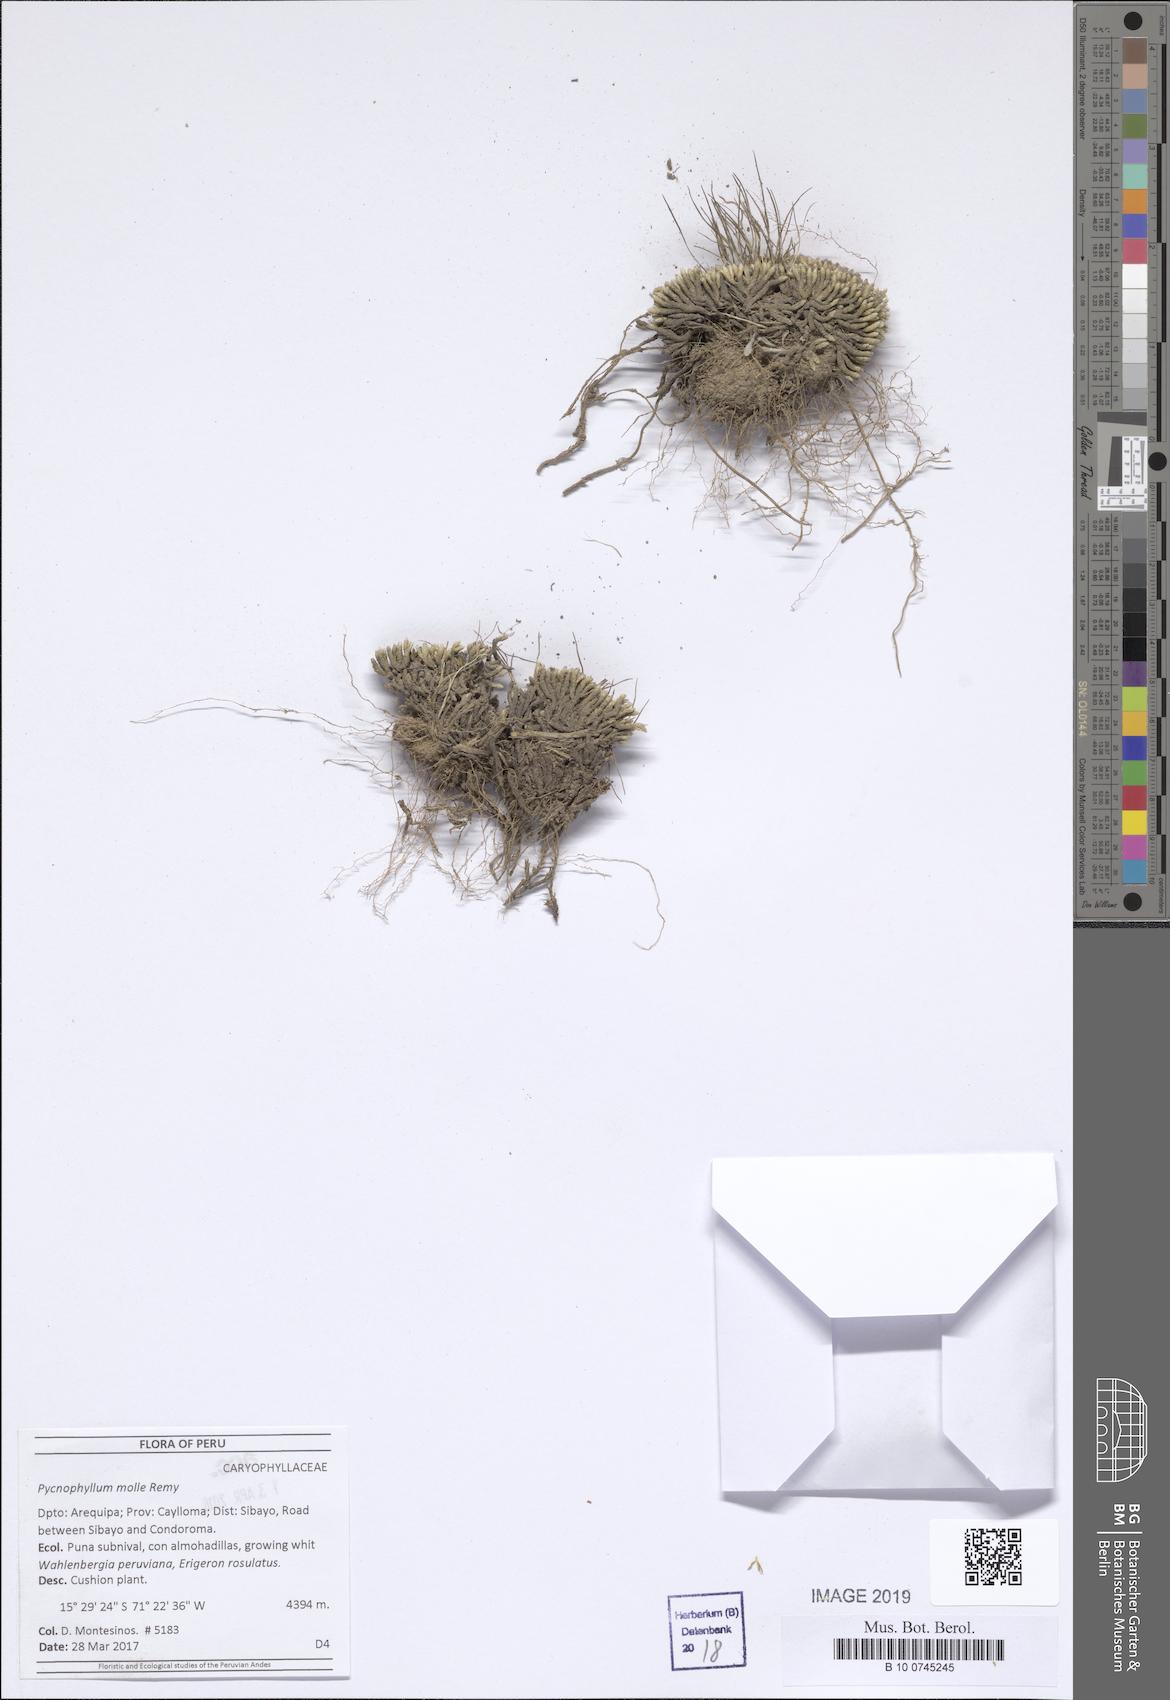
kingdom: Plantae
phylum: Tracheophyta
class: Magnoliopsida
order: Caryophyllales
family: Caryophyllaceae
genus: Pycnophyllum
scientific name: Pycnophyllum molle
